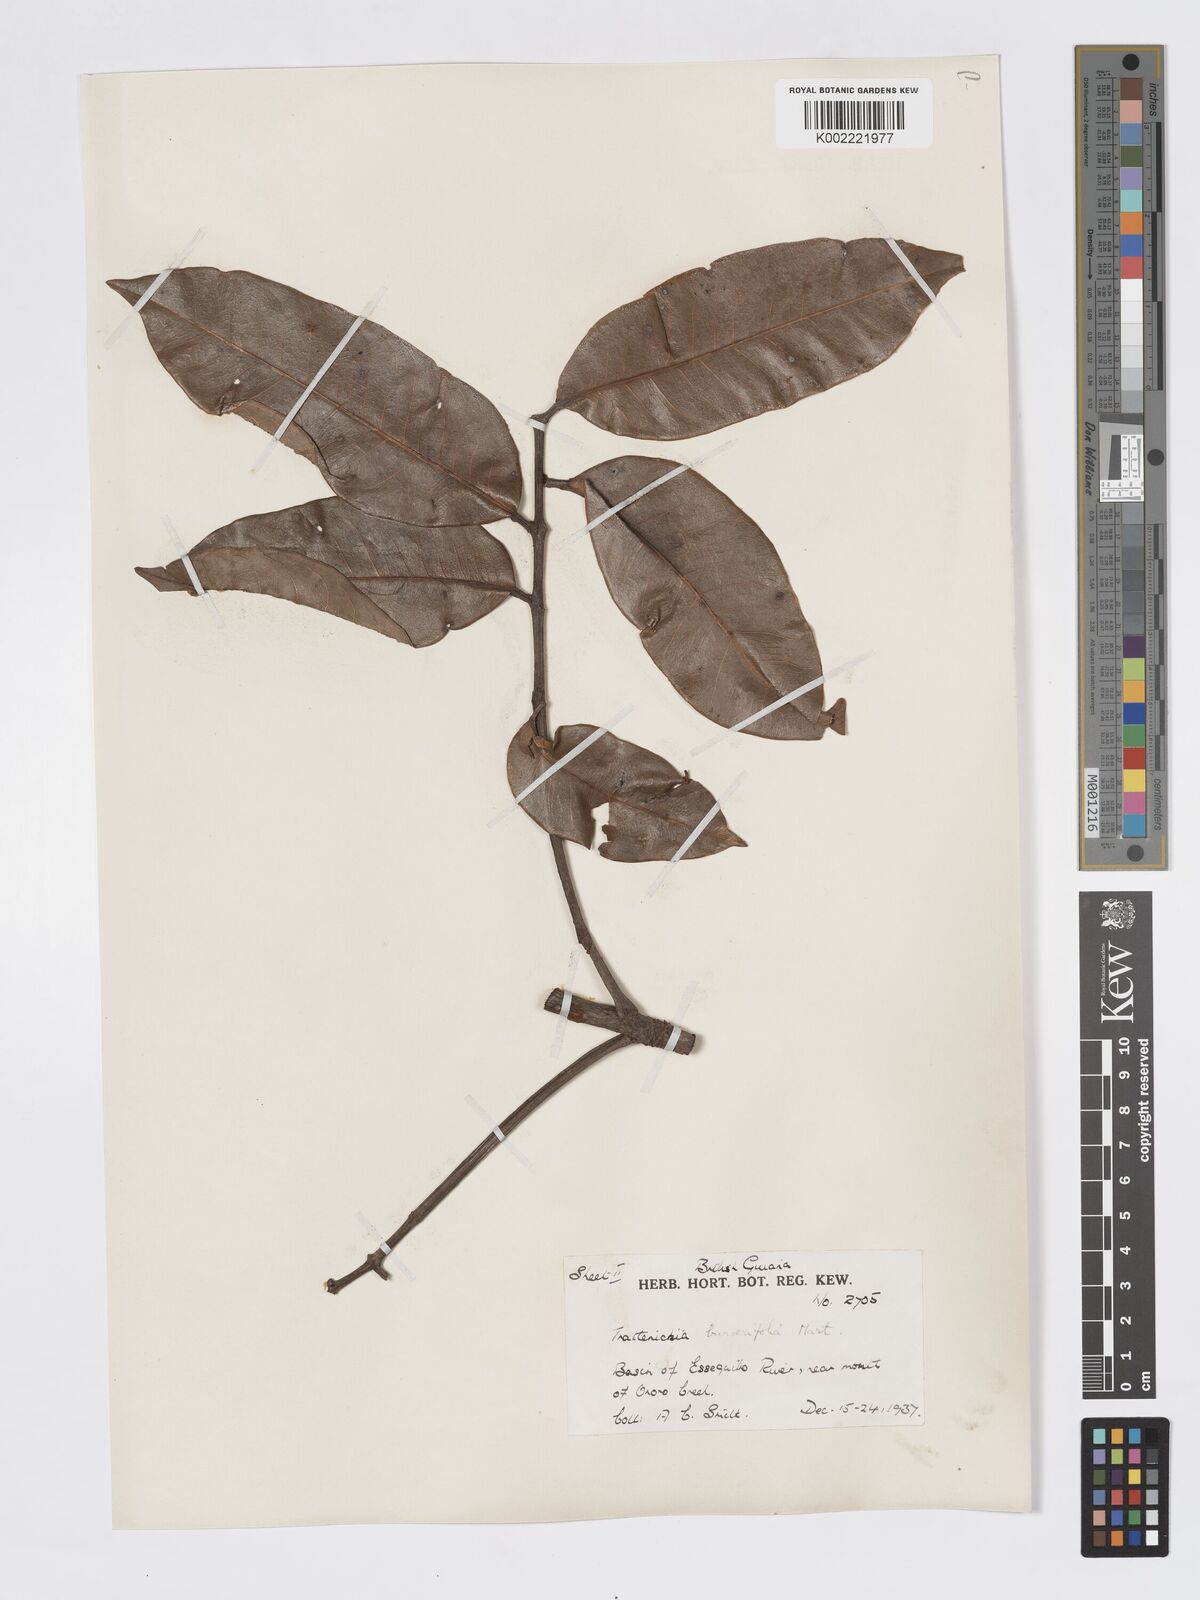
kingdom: Plantae
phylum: Tracheophyta
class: Magnoliopsida
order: Sapindales
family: Burseraceae
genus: Trattinnickia
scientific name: Trattinnickia burserifolia
